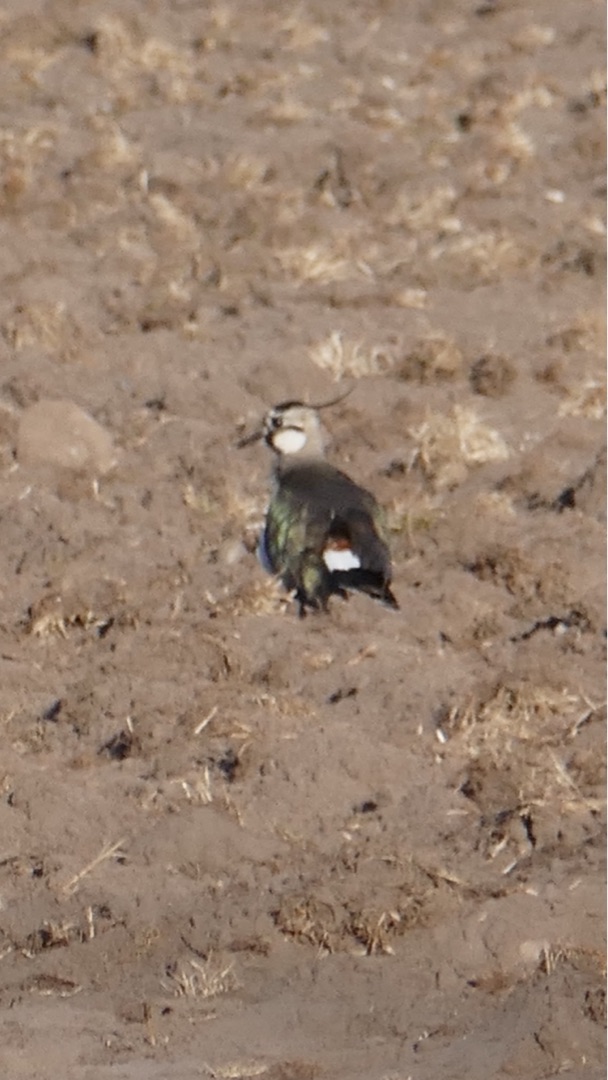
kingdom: Animalia
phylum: Chordata
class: Aves
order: Charadriiformes
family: Charadriidae
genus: Vanellus
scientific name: Vanellus vanellus
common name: Vibe
